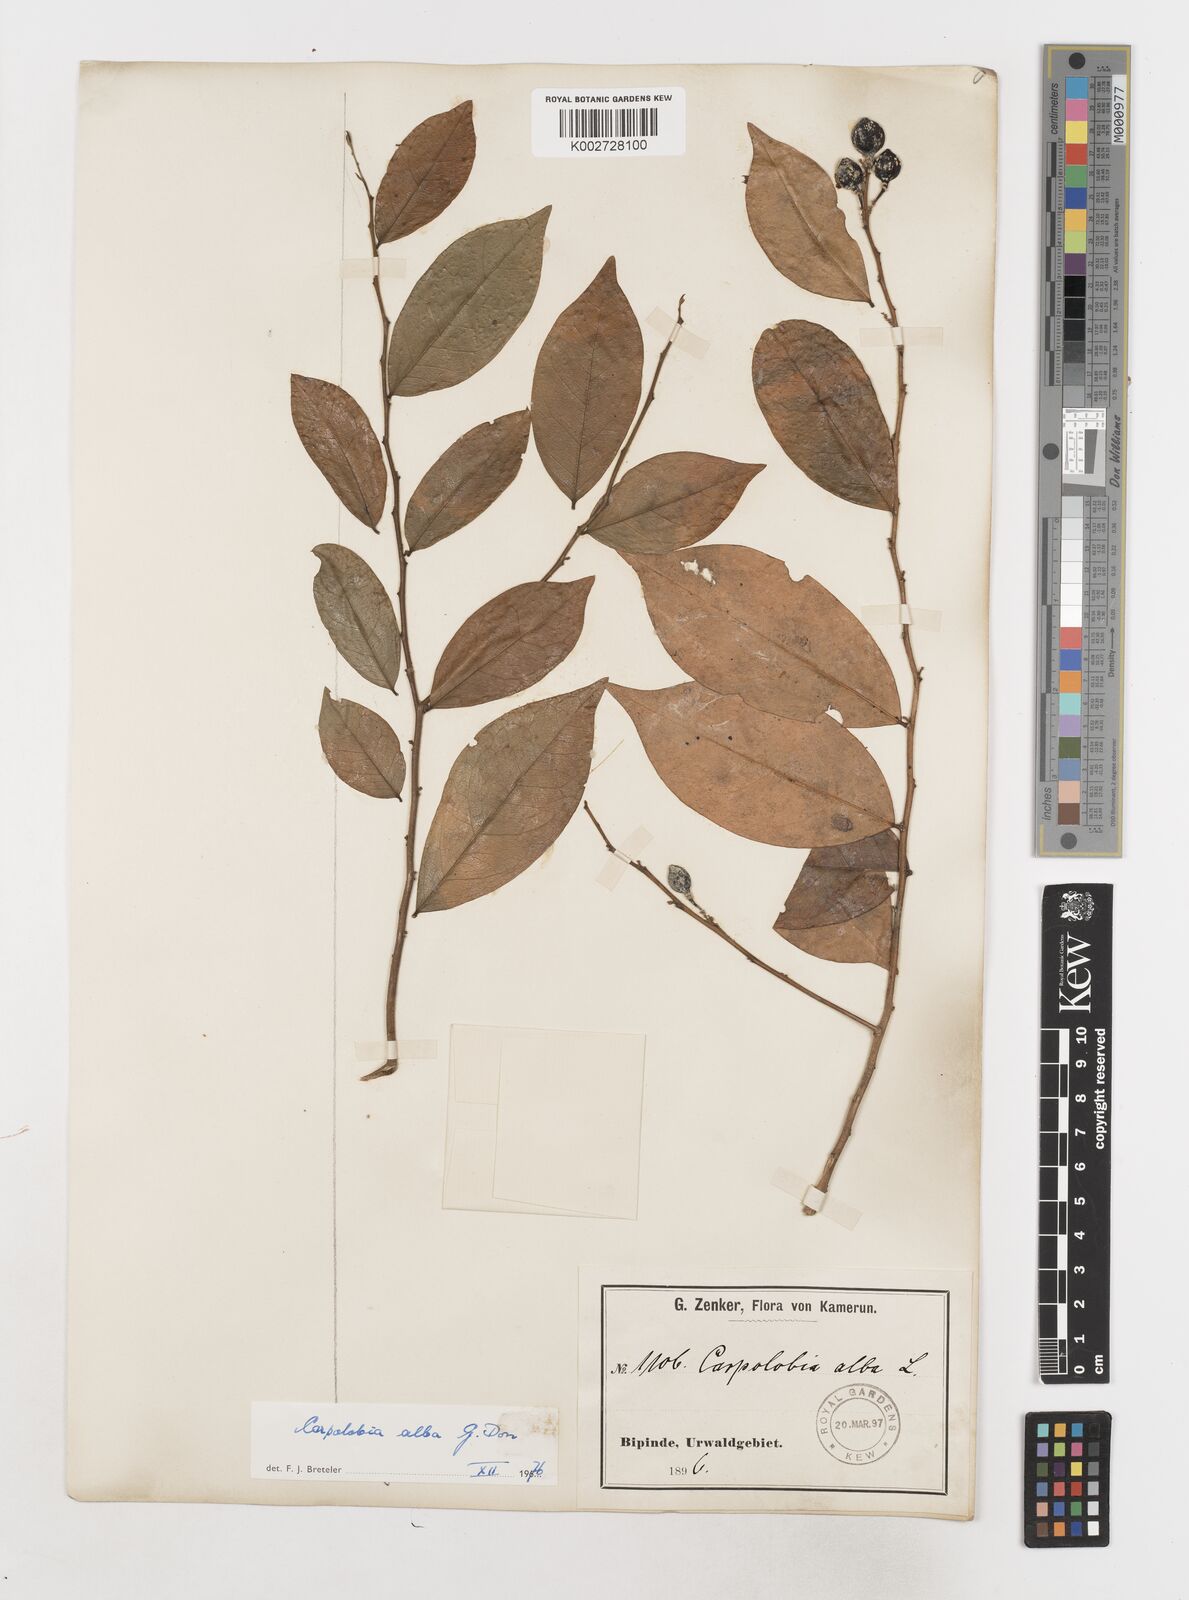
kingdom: Plantae
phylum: Tracheophyta
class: Magnoliopsida
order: Fabales
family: Polygalaceae
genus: Carpolobia
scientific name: Carpolobia alba
